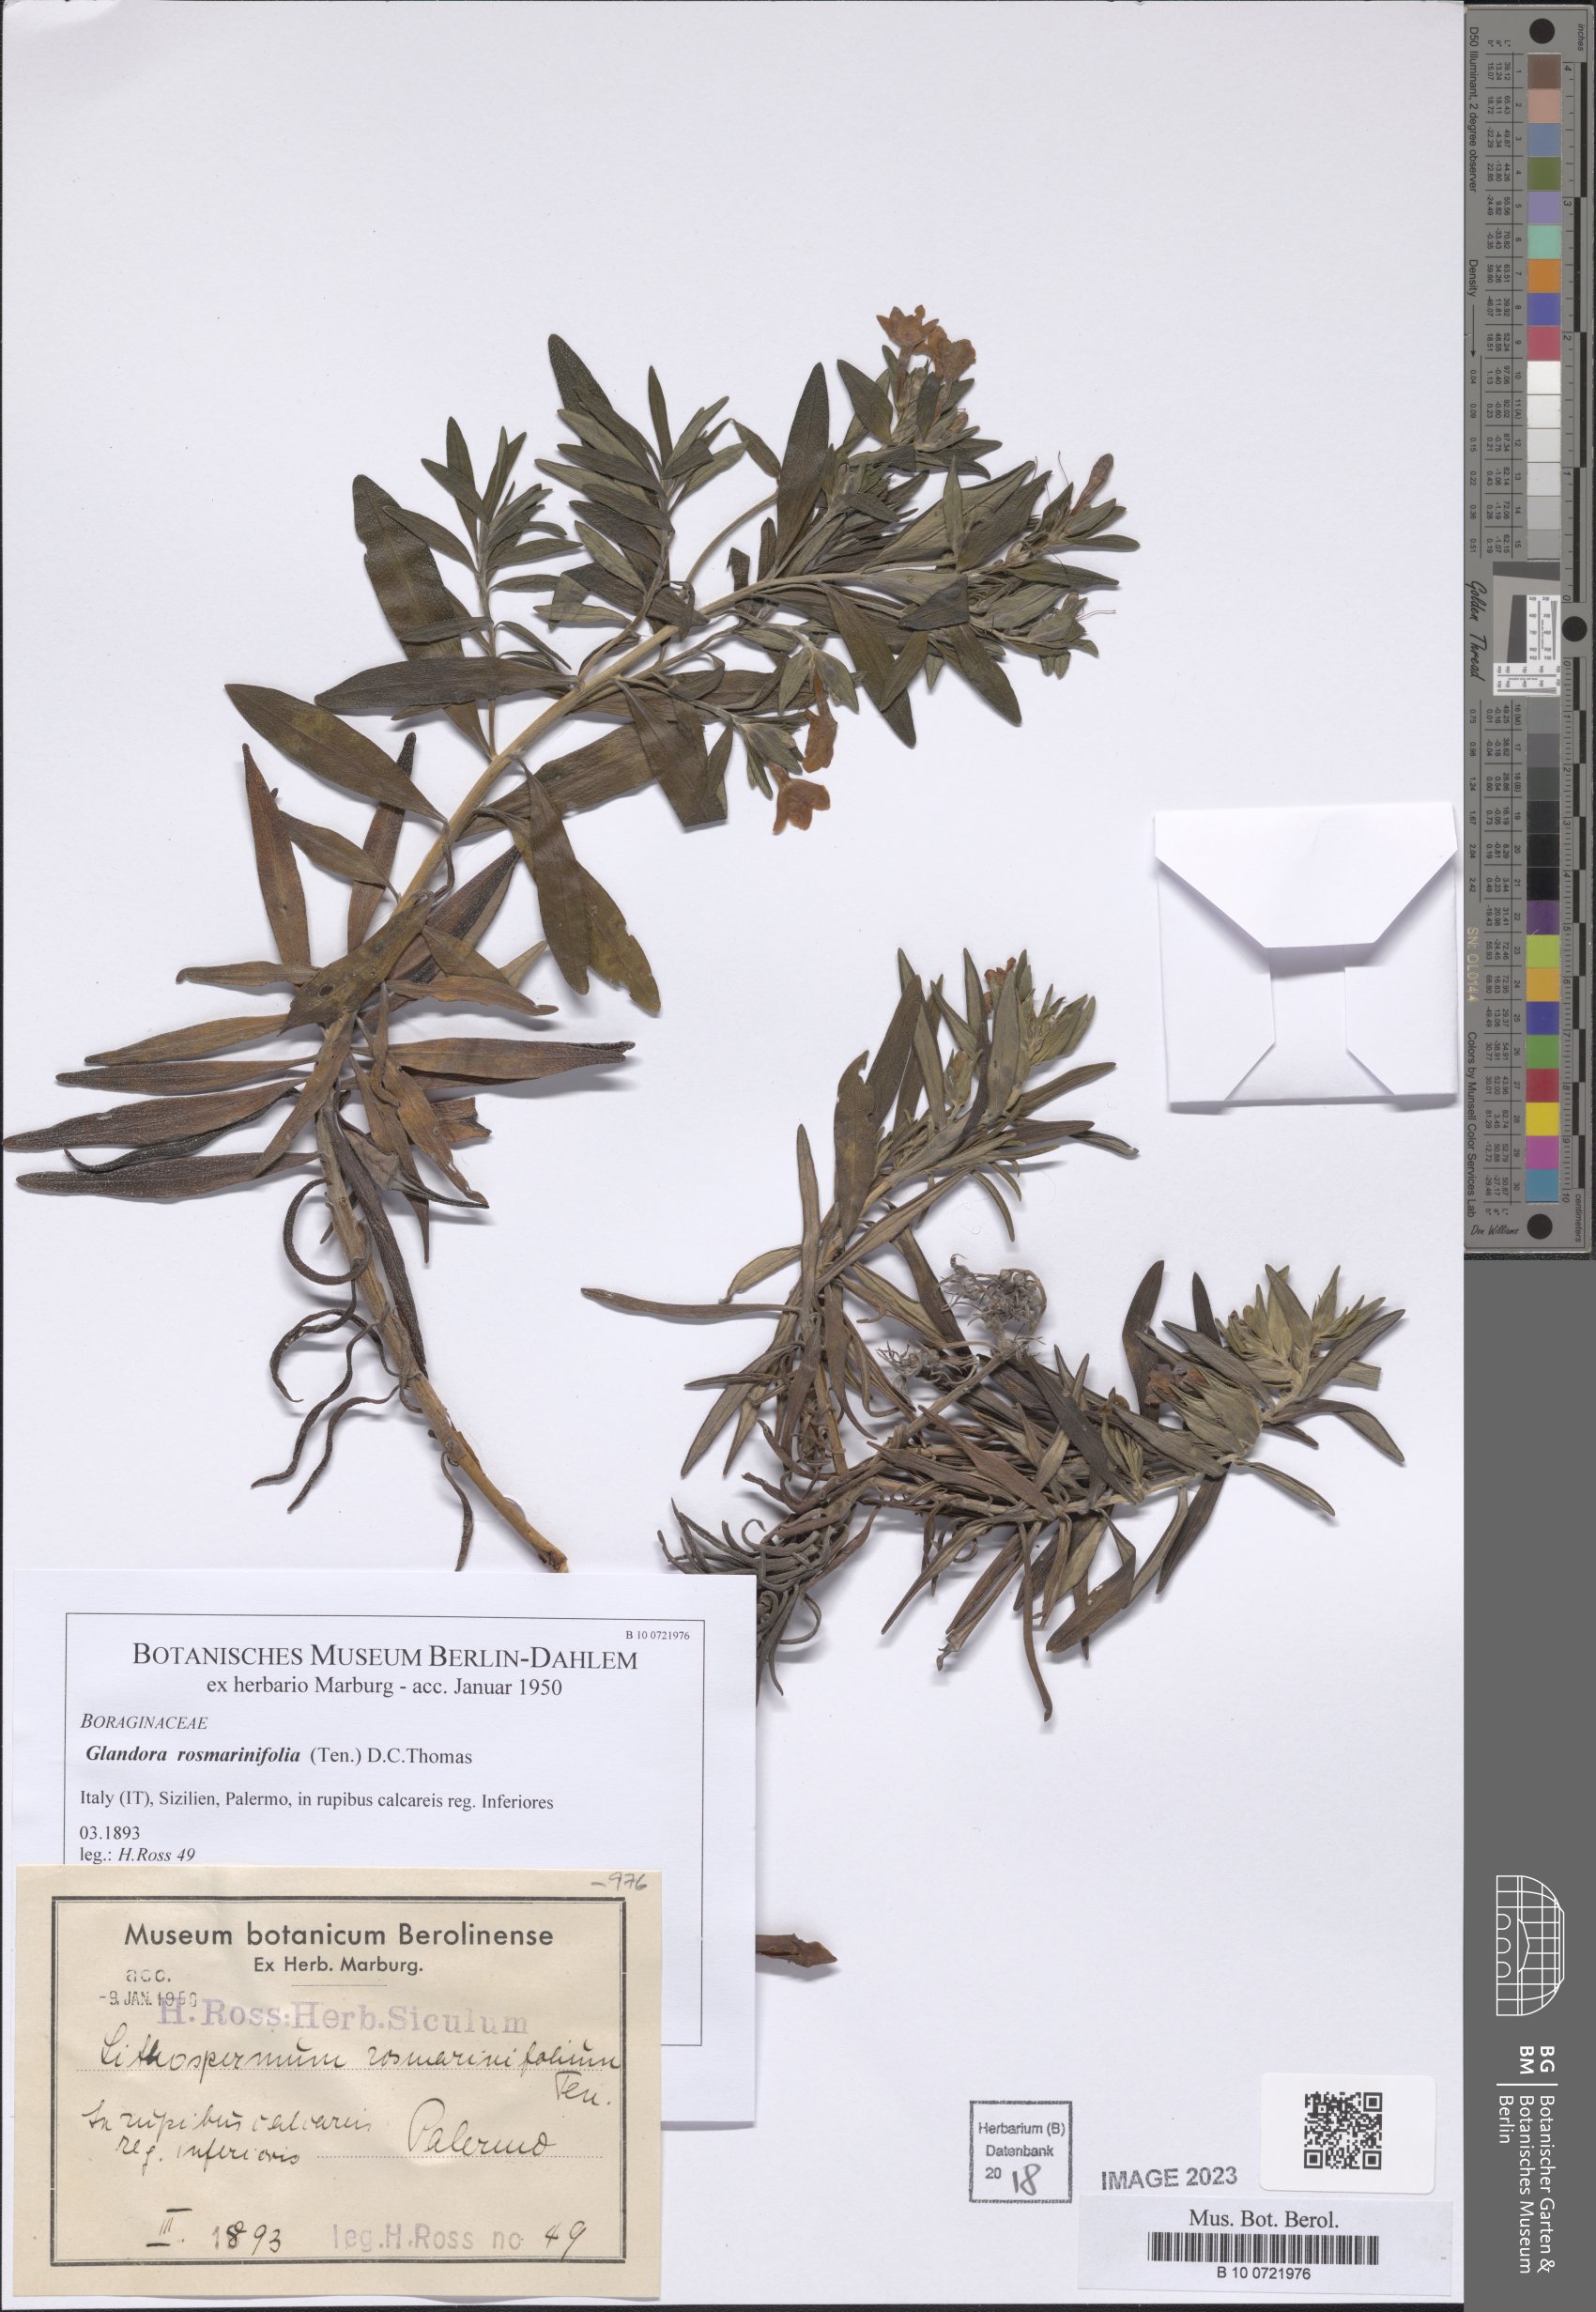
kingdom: Plantae
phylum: Tracheophyta
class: Magnoliopsida
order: Boraginales
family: Boraginaceae
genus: Glandora
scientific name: Glandora rosmarinifolia
